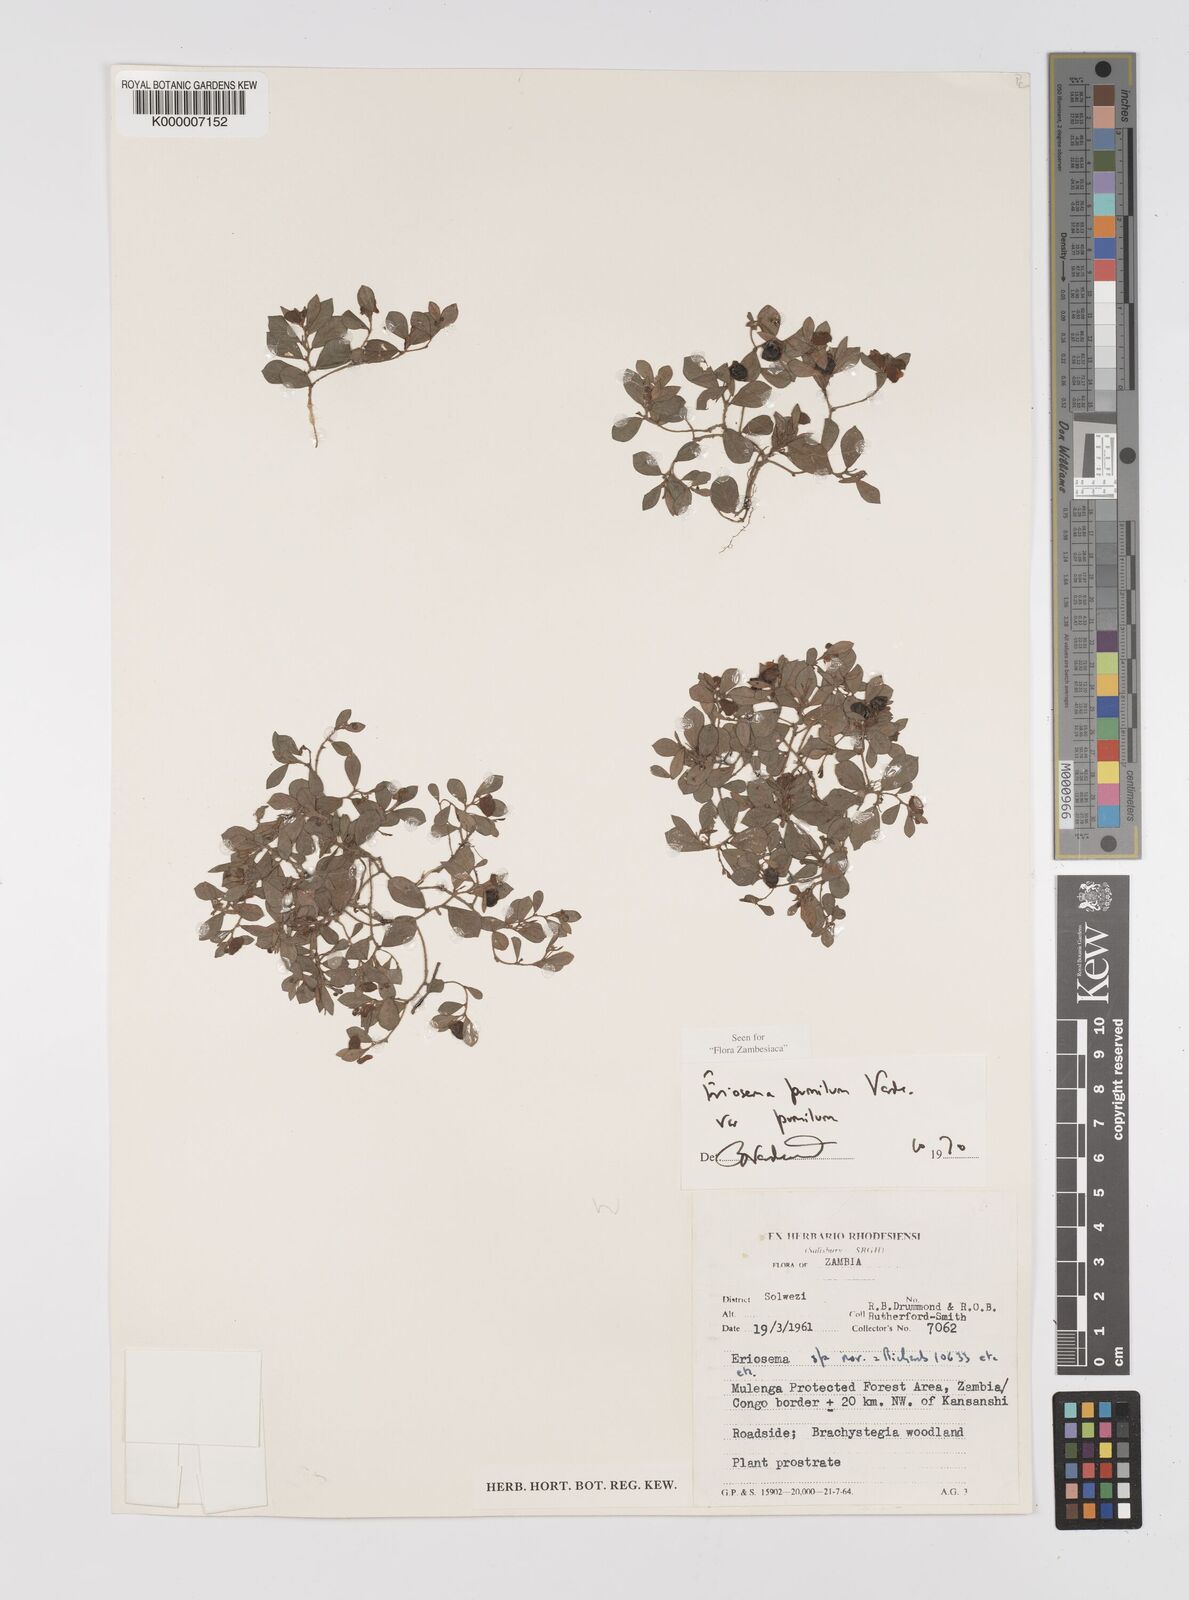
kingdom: Plantae
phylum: Tracheophyta
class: Magnoliopsida
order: Fabales
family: Fabaceae
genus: Eriosema
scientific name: Eriosema pumilum
